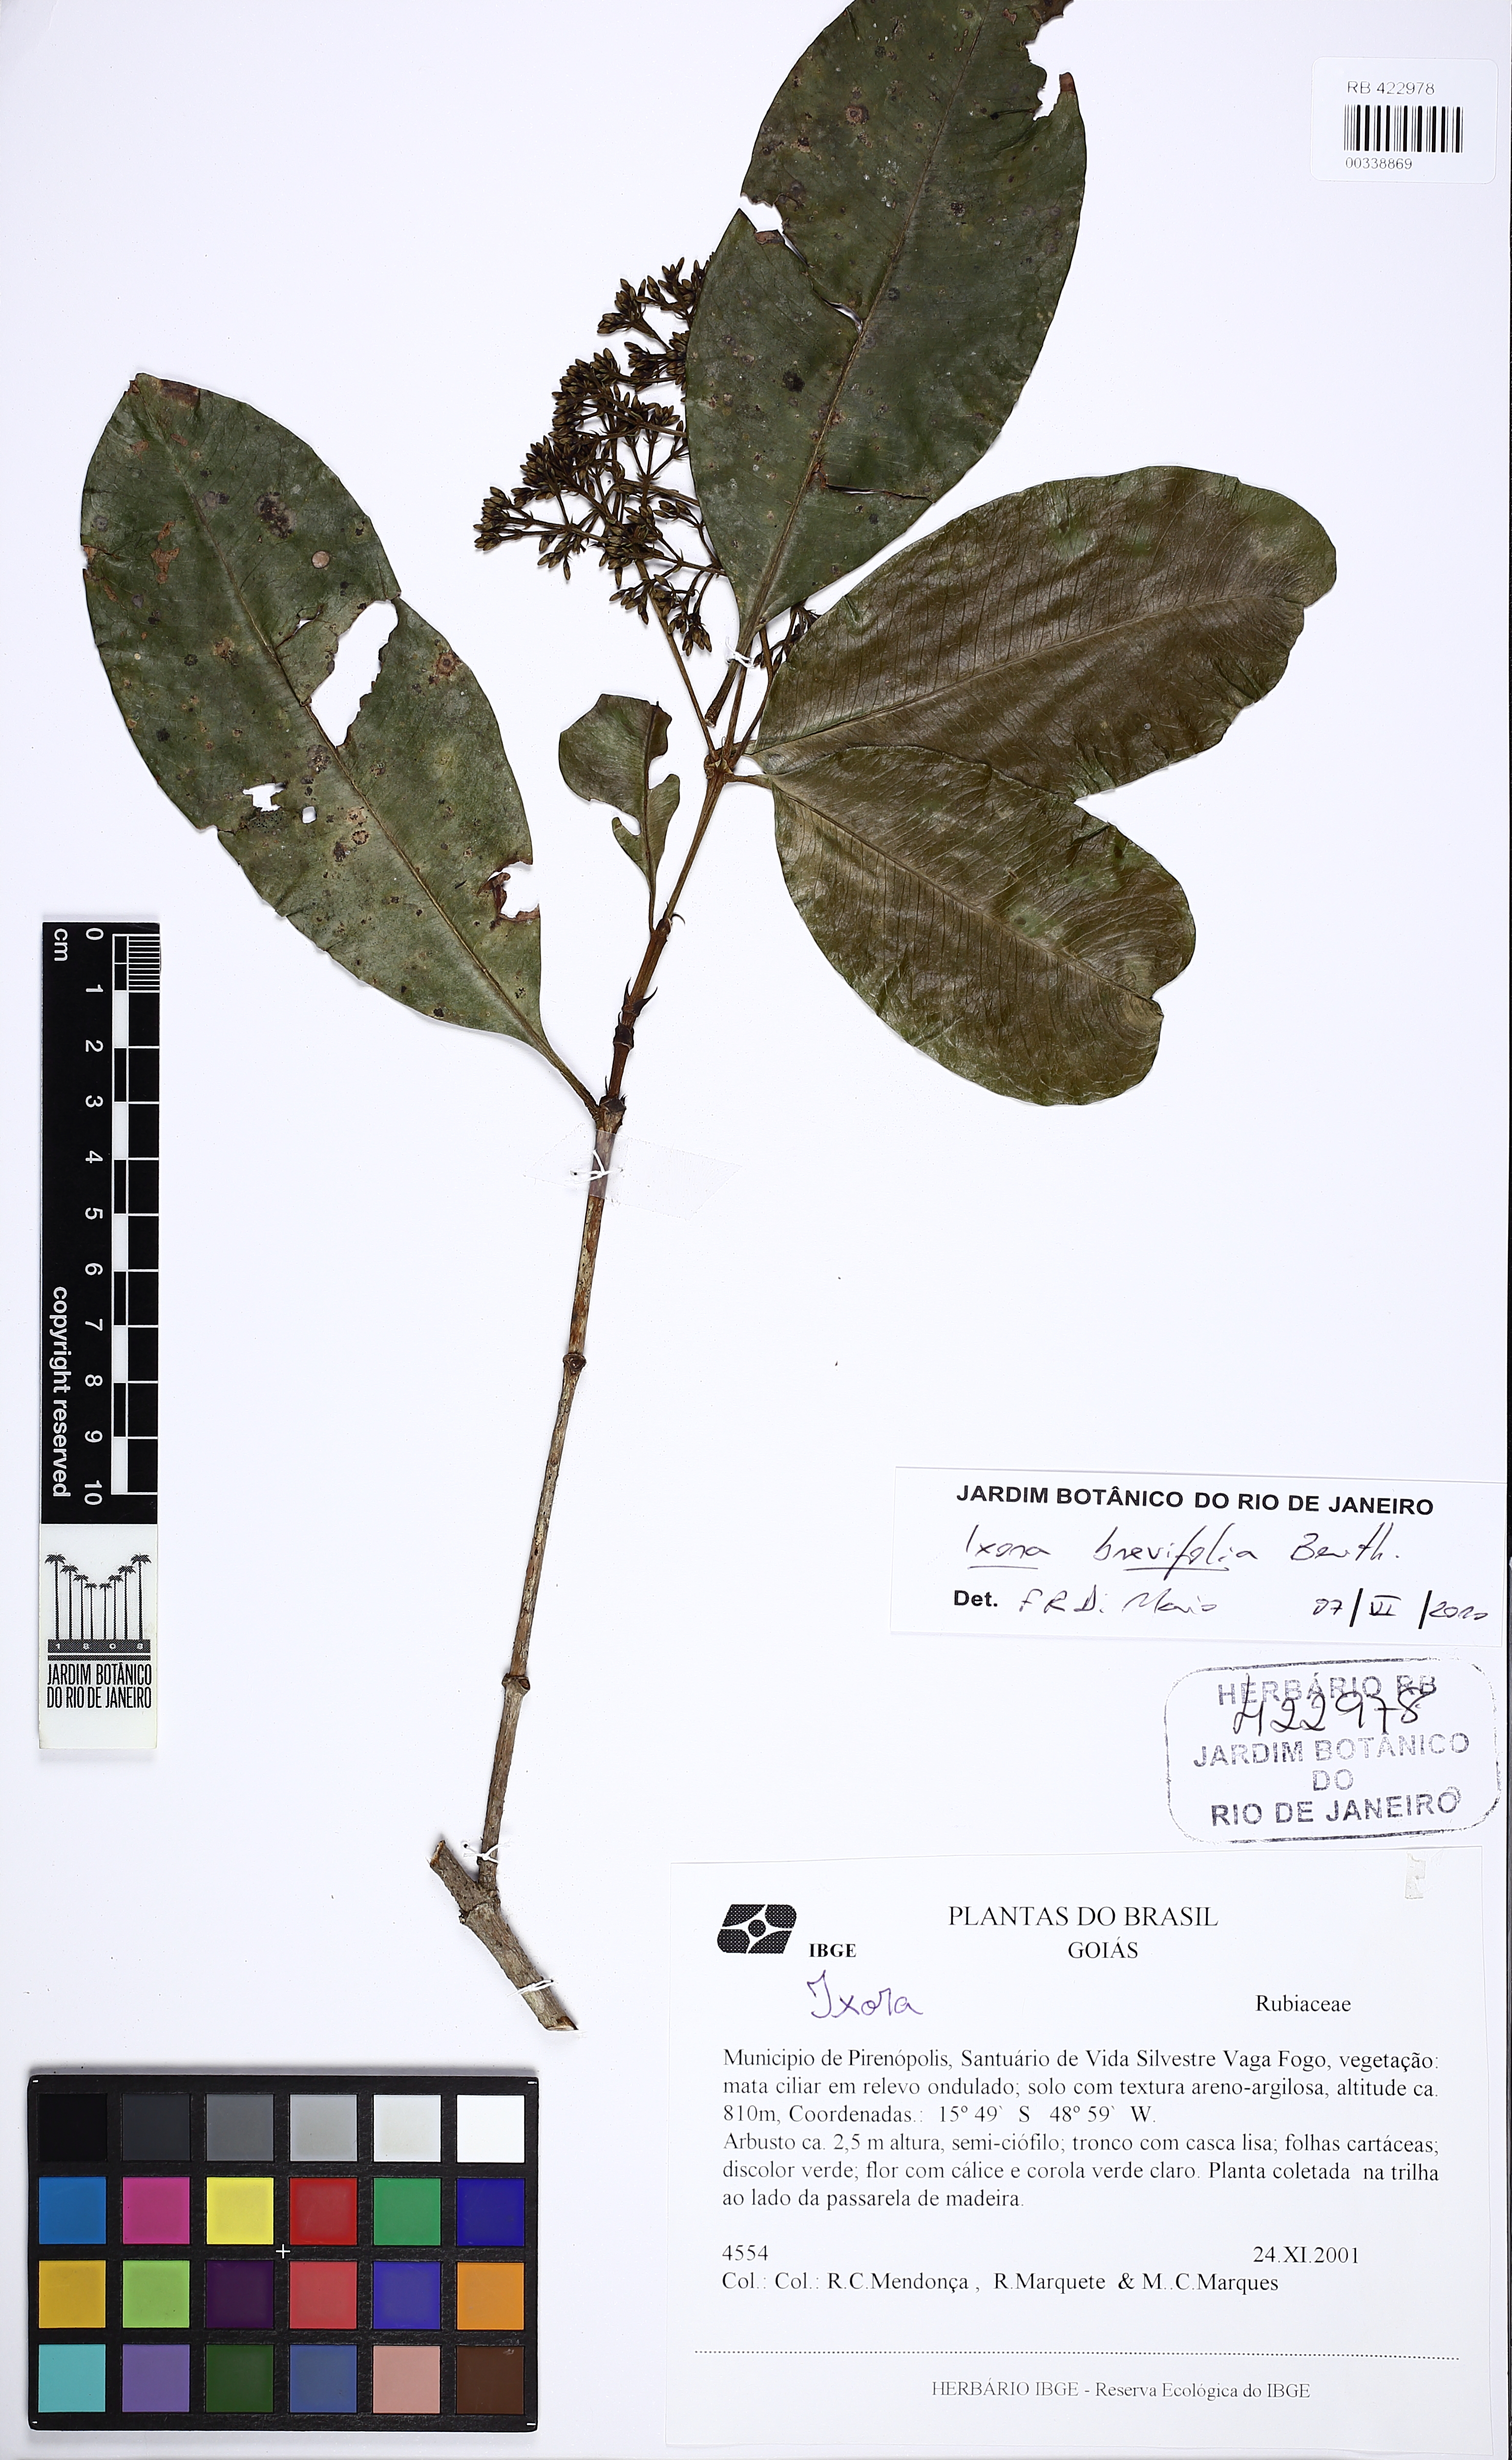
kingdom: Plantae
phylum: Tracheophyta
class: Magnoliopsida
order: Gentianales
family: Rubiaceae
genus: Ixora
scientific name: Ixora brevifolia
